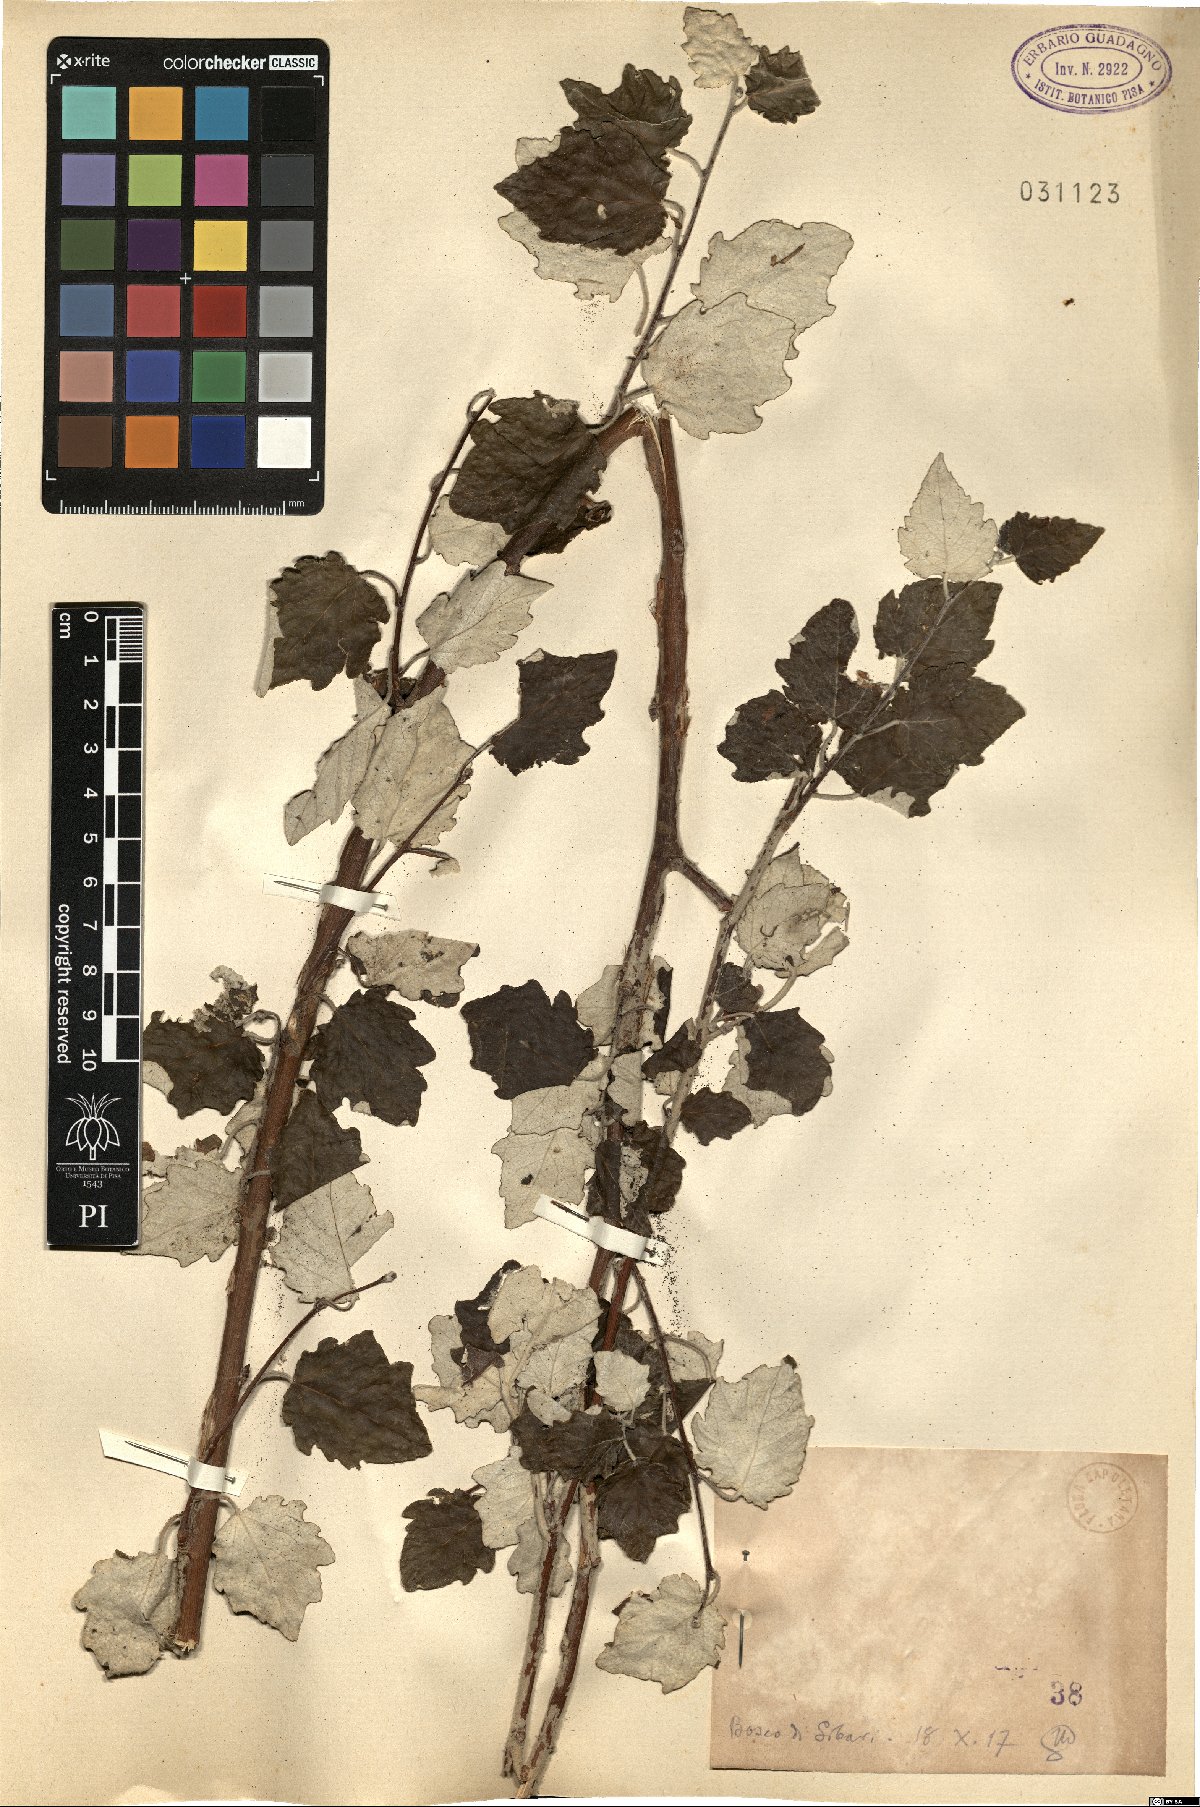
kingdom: Plantae
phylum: Tracheophyta
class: Magnoliopsida
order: Malpighiales
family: Salicaceae
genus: Populus
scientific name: Populus
